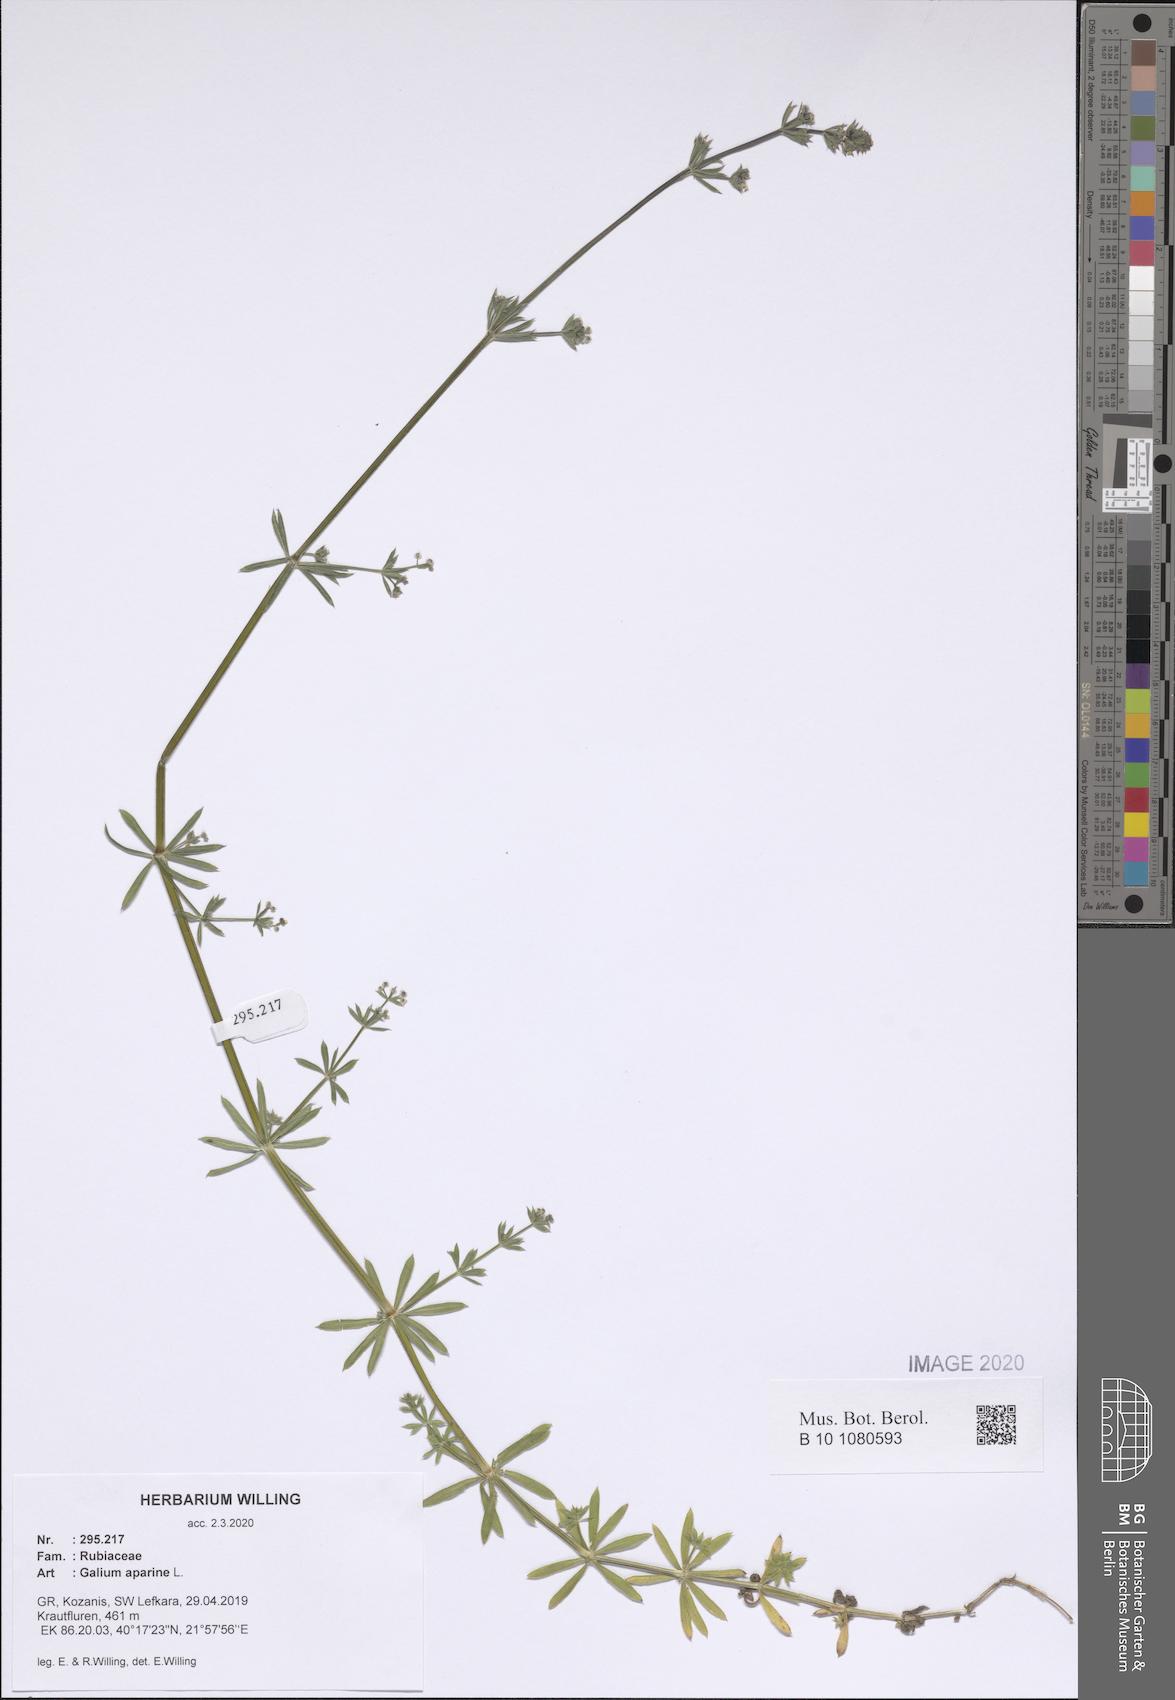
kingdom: Plantae
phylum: Tracheophyta
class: Magnoliopsida
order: Gentianales
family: Rubiaceae
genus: Galium
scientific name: Galium aparine
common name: Cleavers
